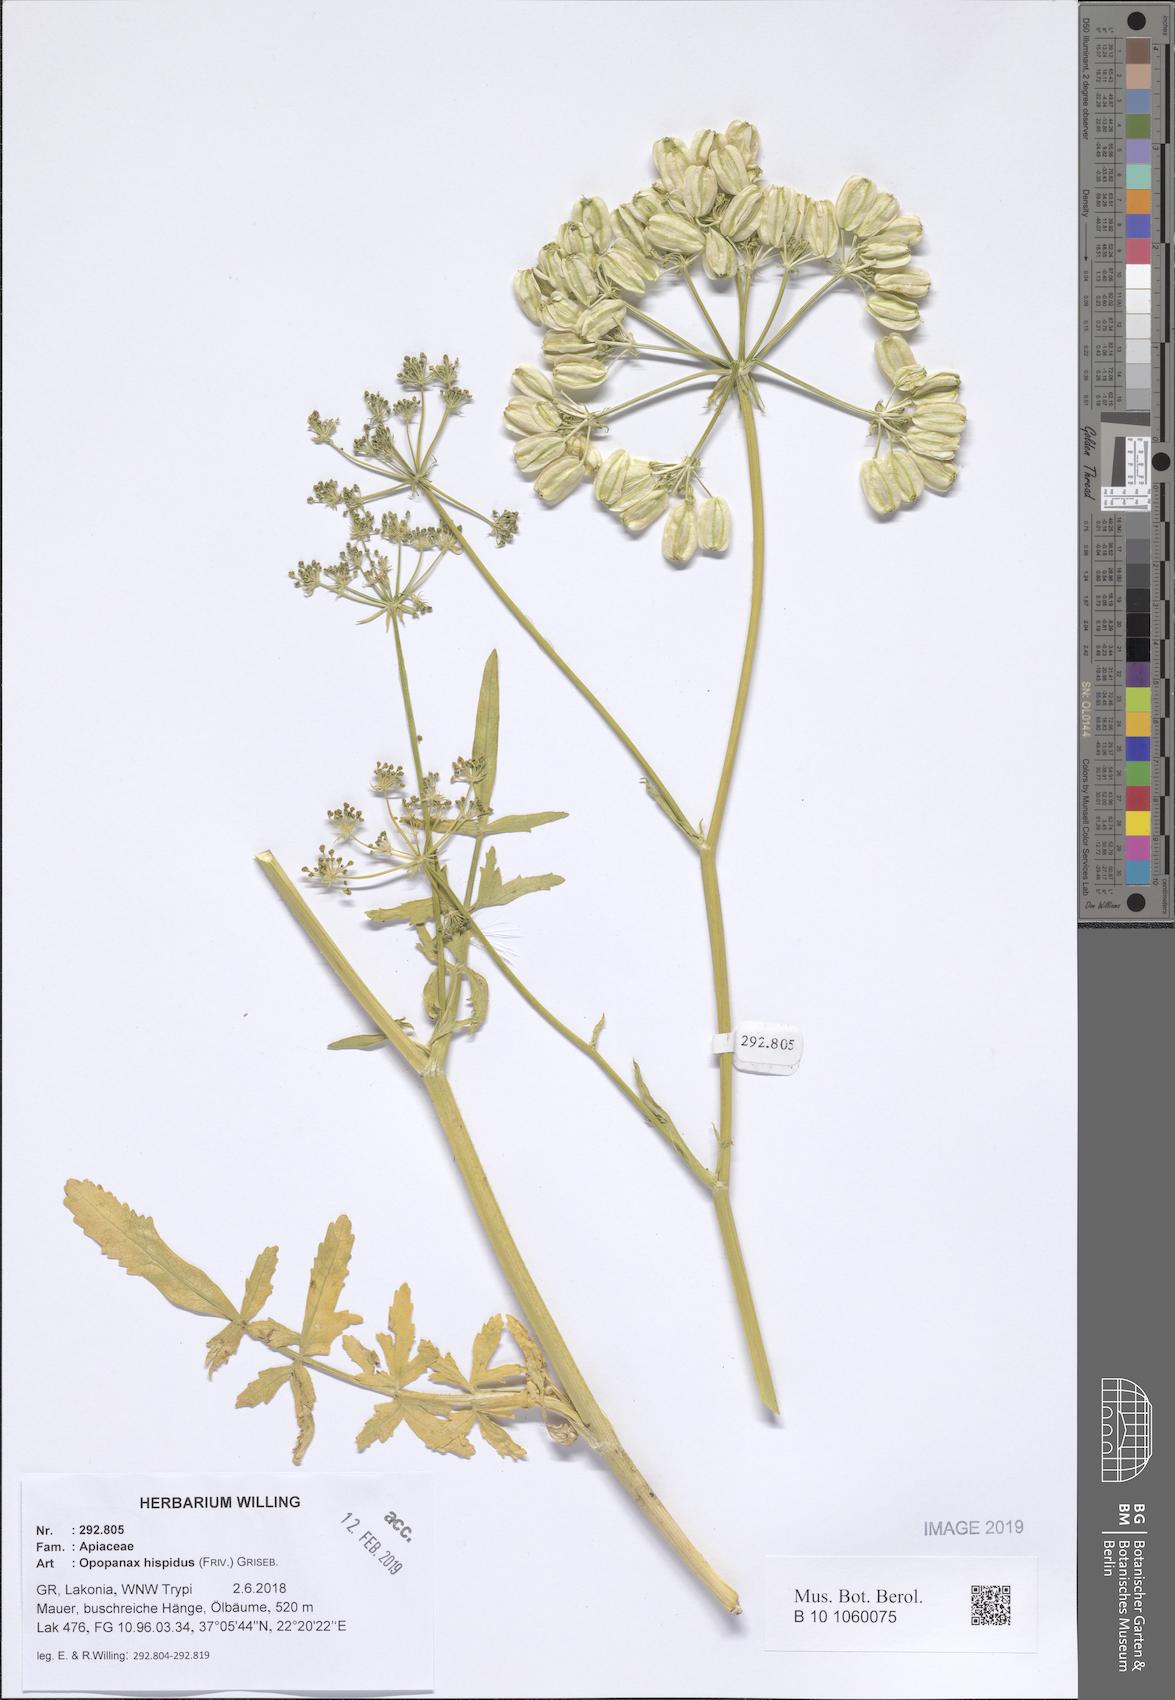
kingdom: Plantae
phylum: Tracheophyta
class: Magnoliopsida
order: Apiales
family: Apiaceae
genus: Opopanax
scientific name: Opopanax hispidus
